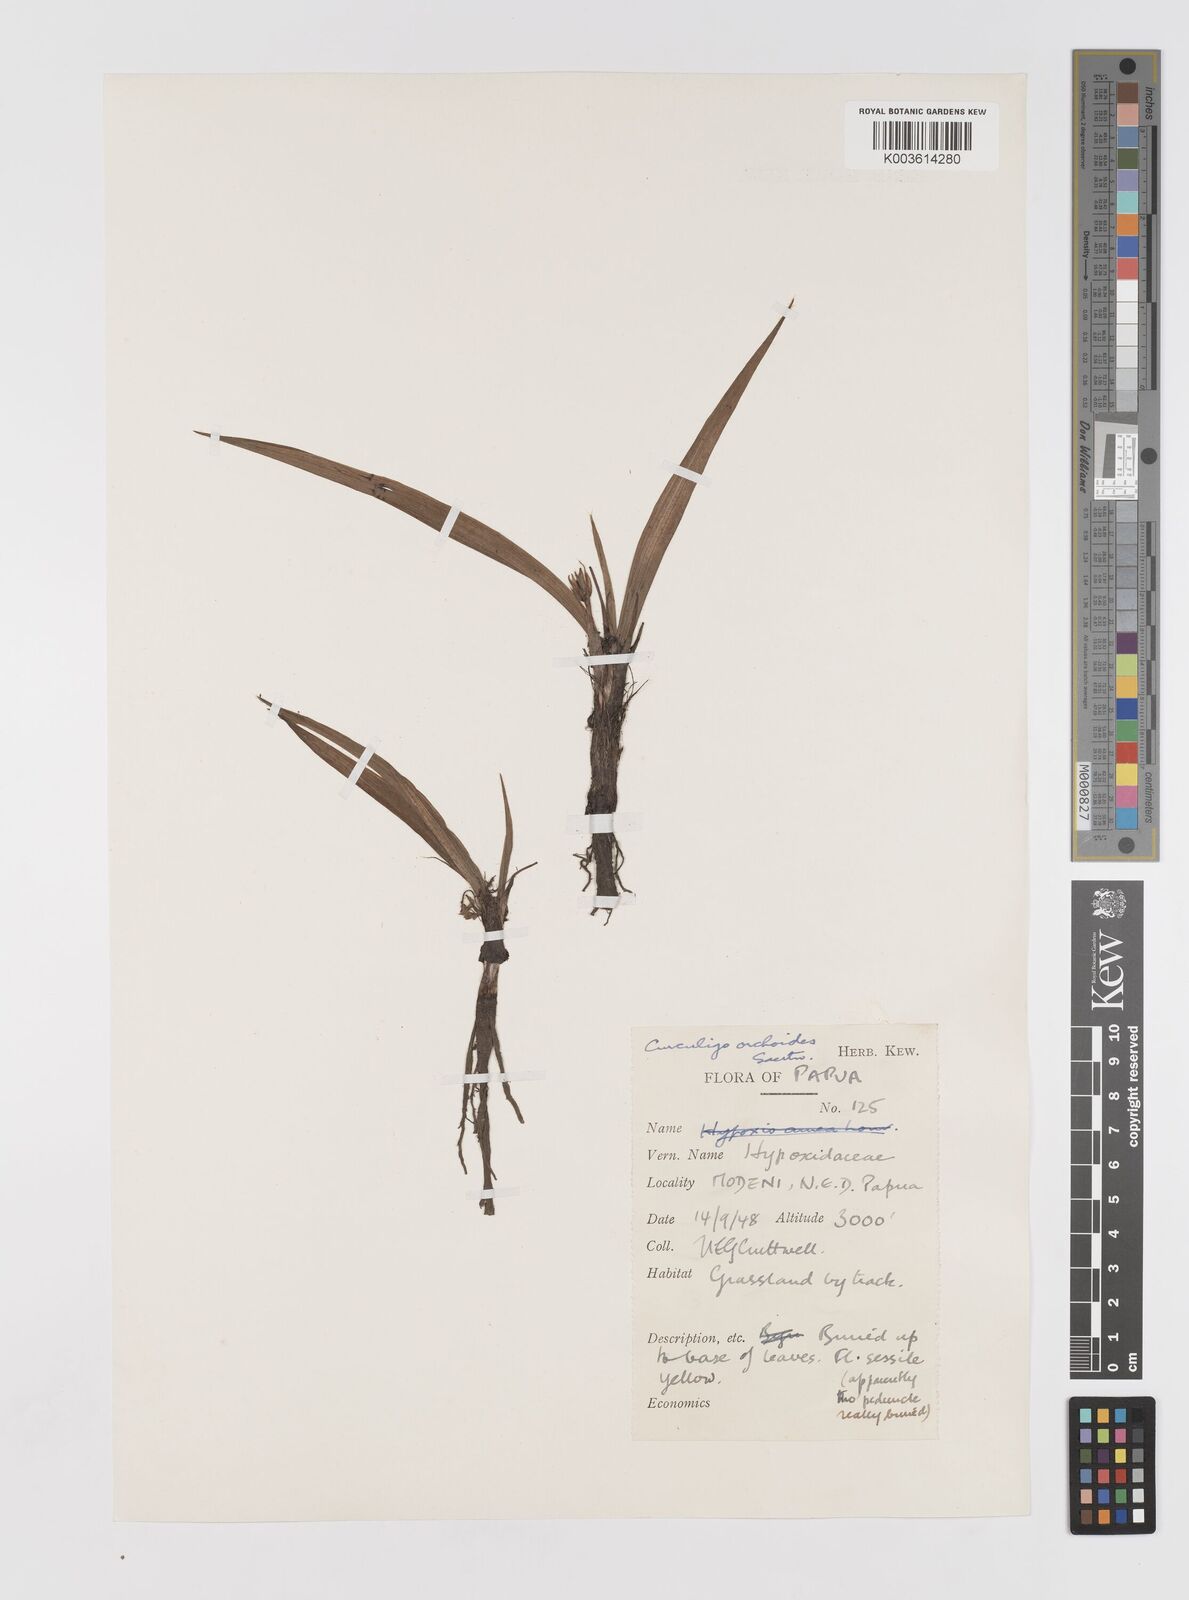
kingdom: Plantae
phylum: Tracheophyta
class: Liliopsida
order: Asparagales
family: Hypoxidaceae
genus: Curculigo
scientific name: Curculigo orchioides
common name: Golden eye-grass
